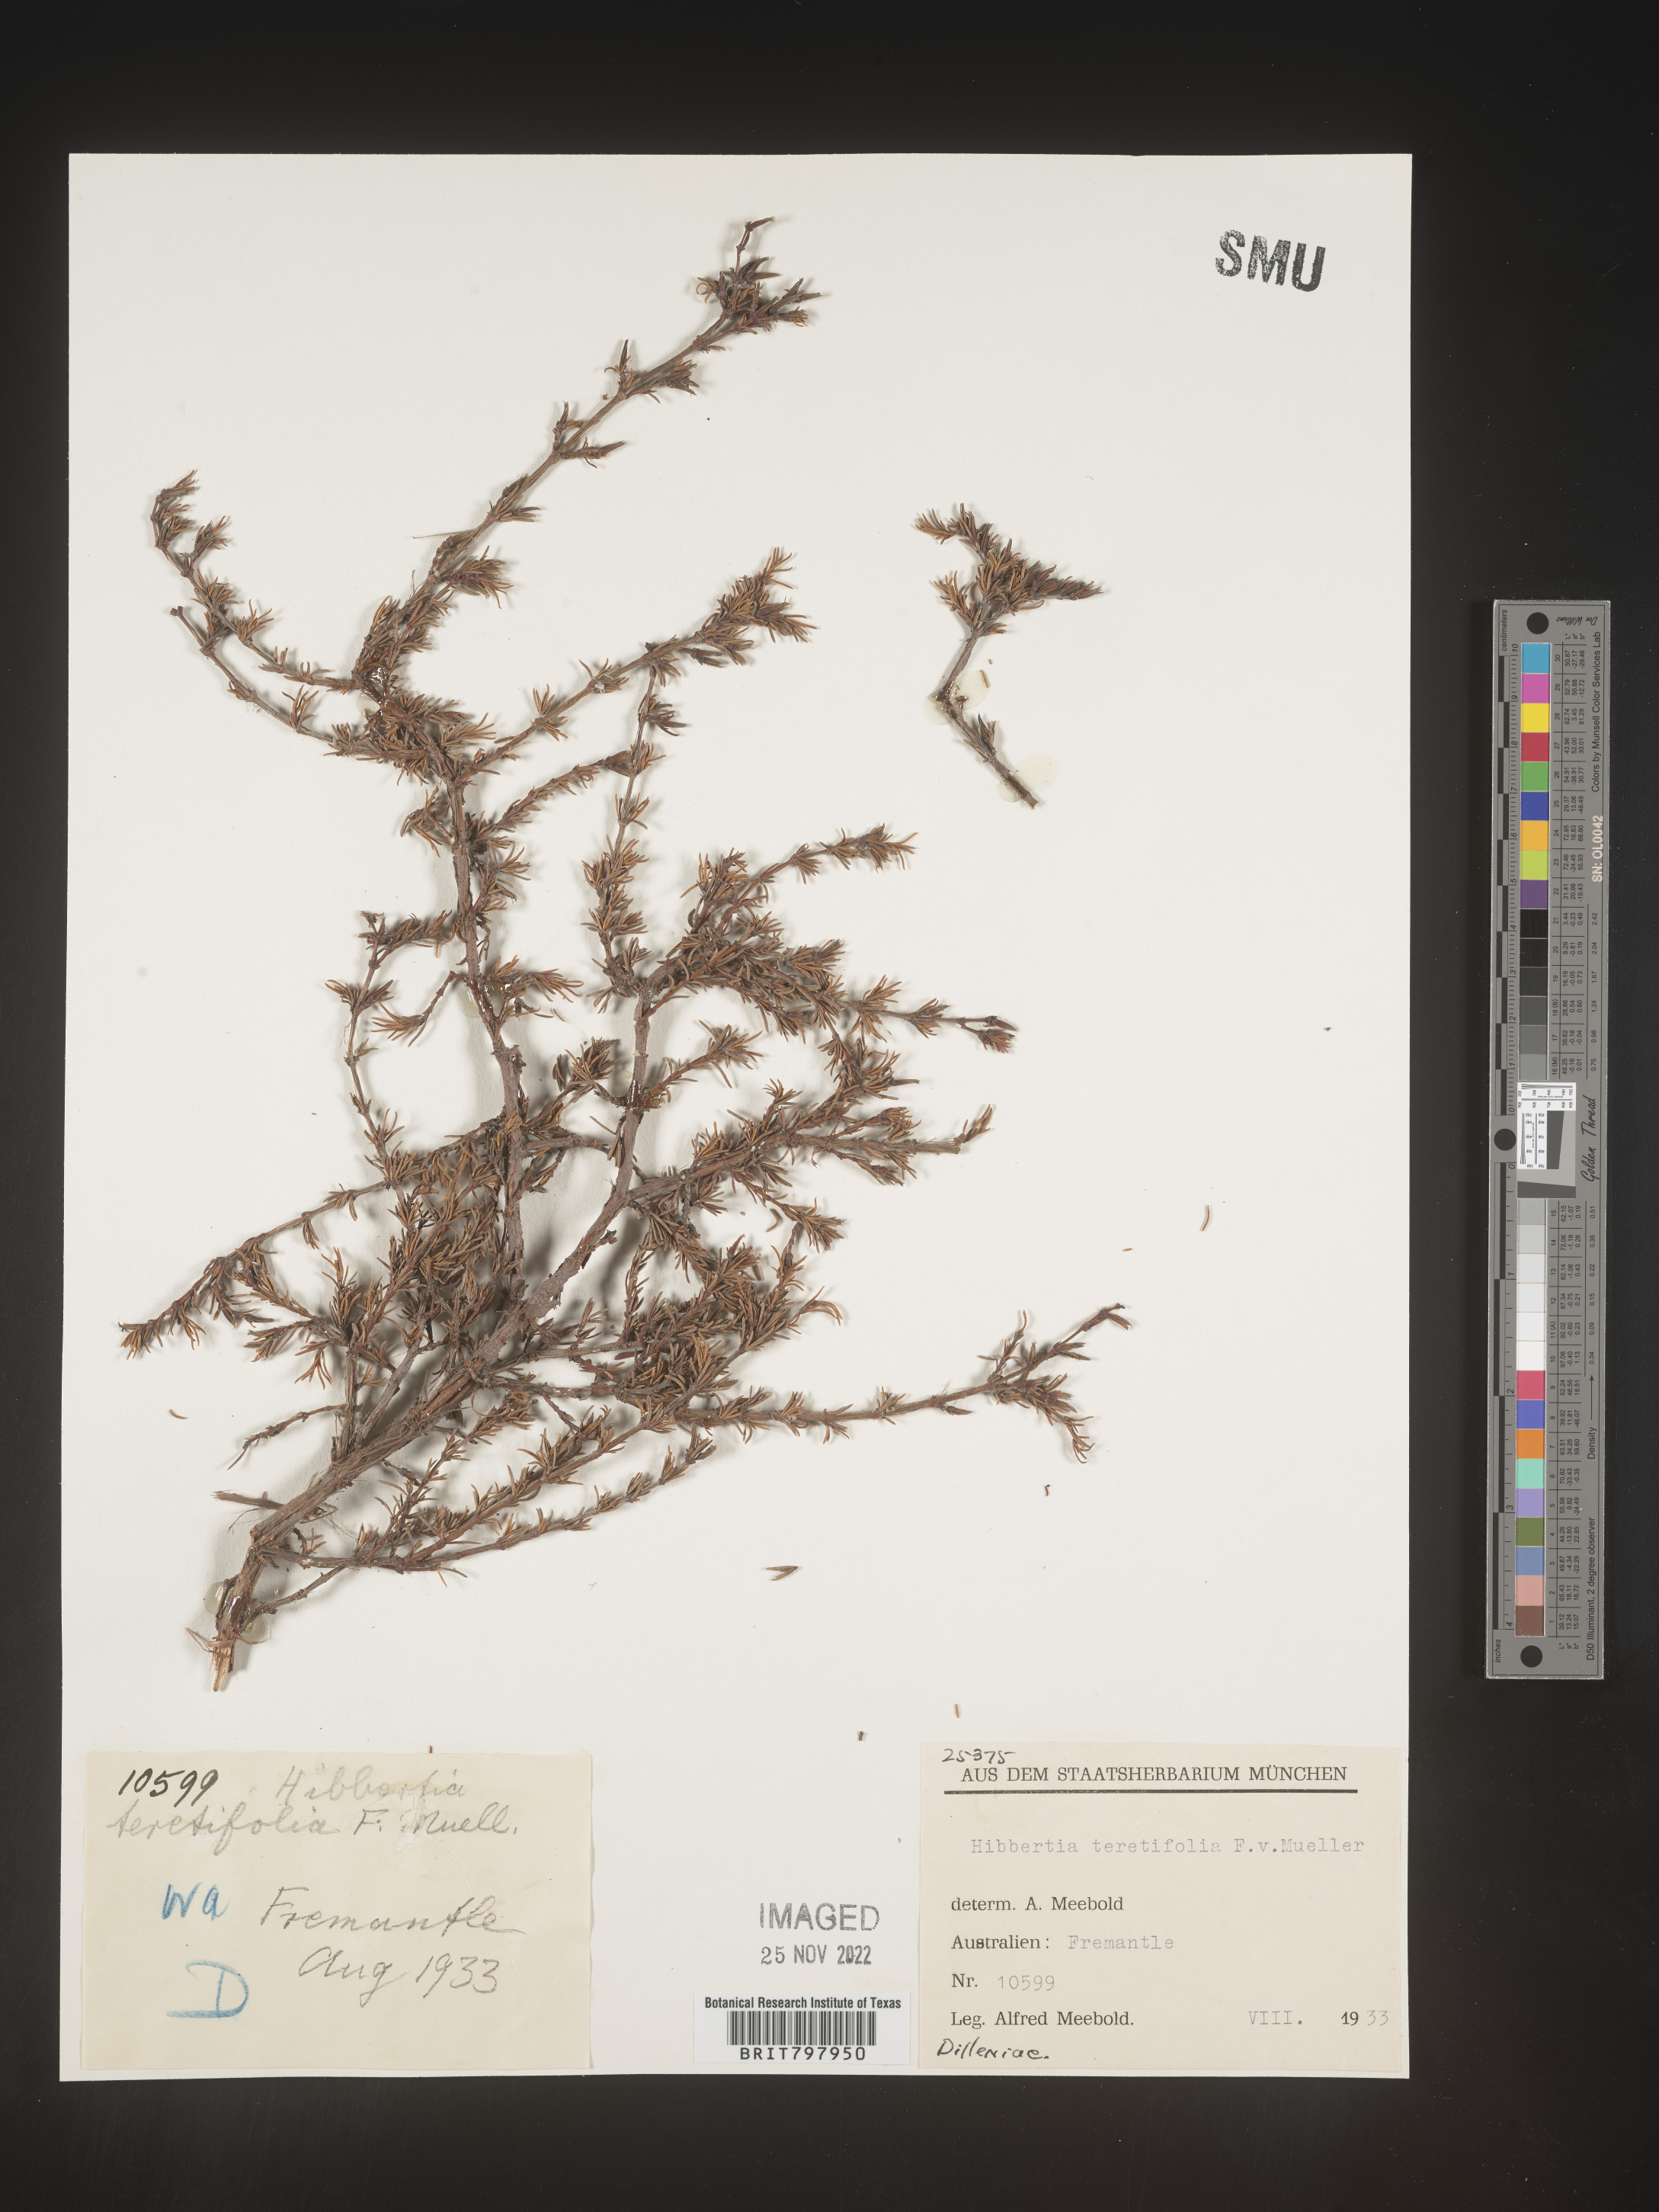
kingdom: Plantae
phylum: Tracheophyta
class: Magnoliopsida
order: Dilleniales
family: Dilleniaceae
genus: Hibbertia
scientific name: Hibbertia
